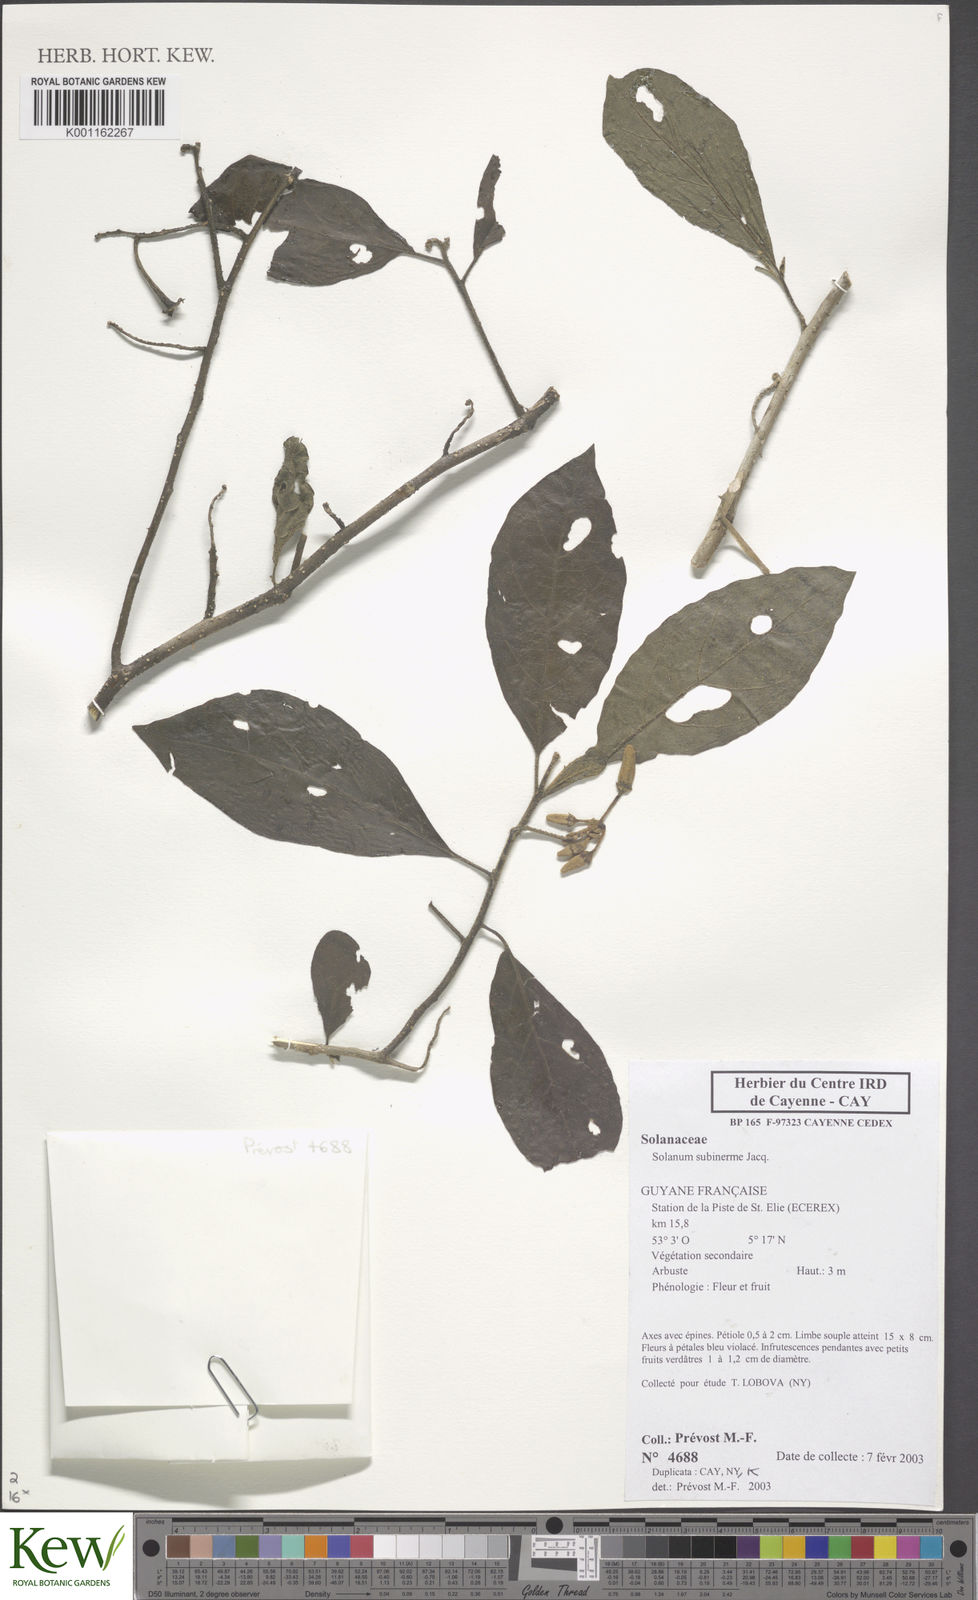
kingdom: Plantae
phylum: Tracheophyta
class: Magnoliopsida
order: Solanales
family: Solanaceae
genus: Solanum
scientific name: Solanum subinerme
